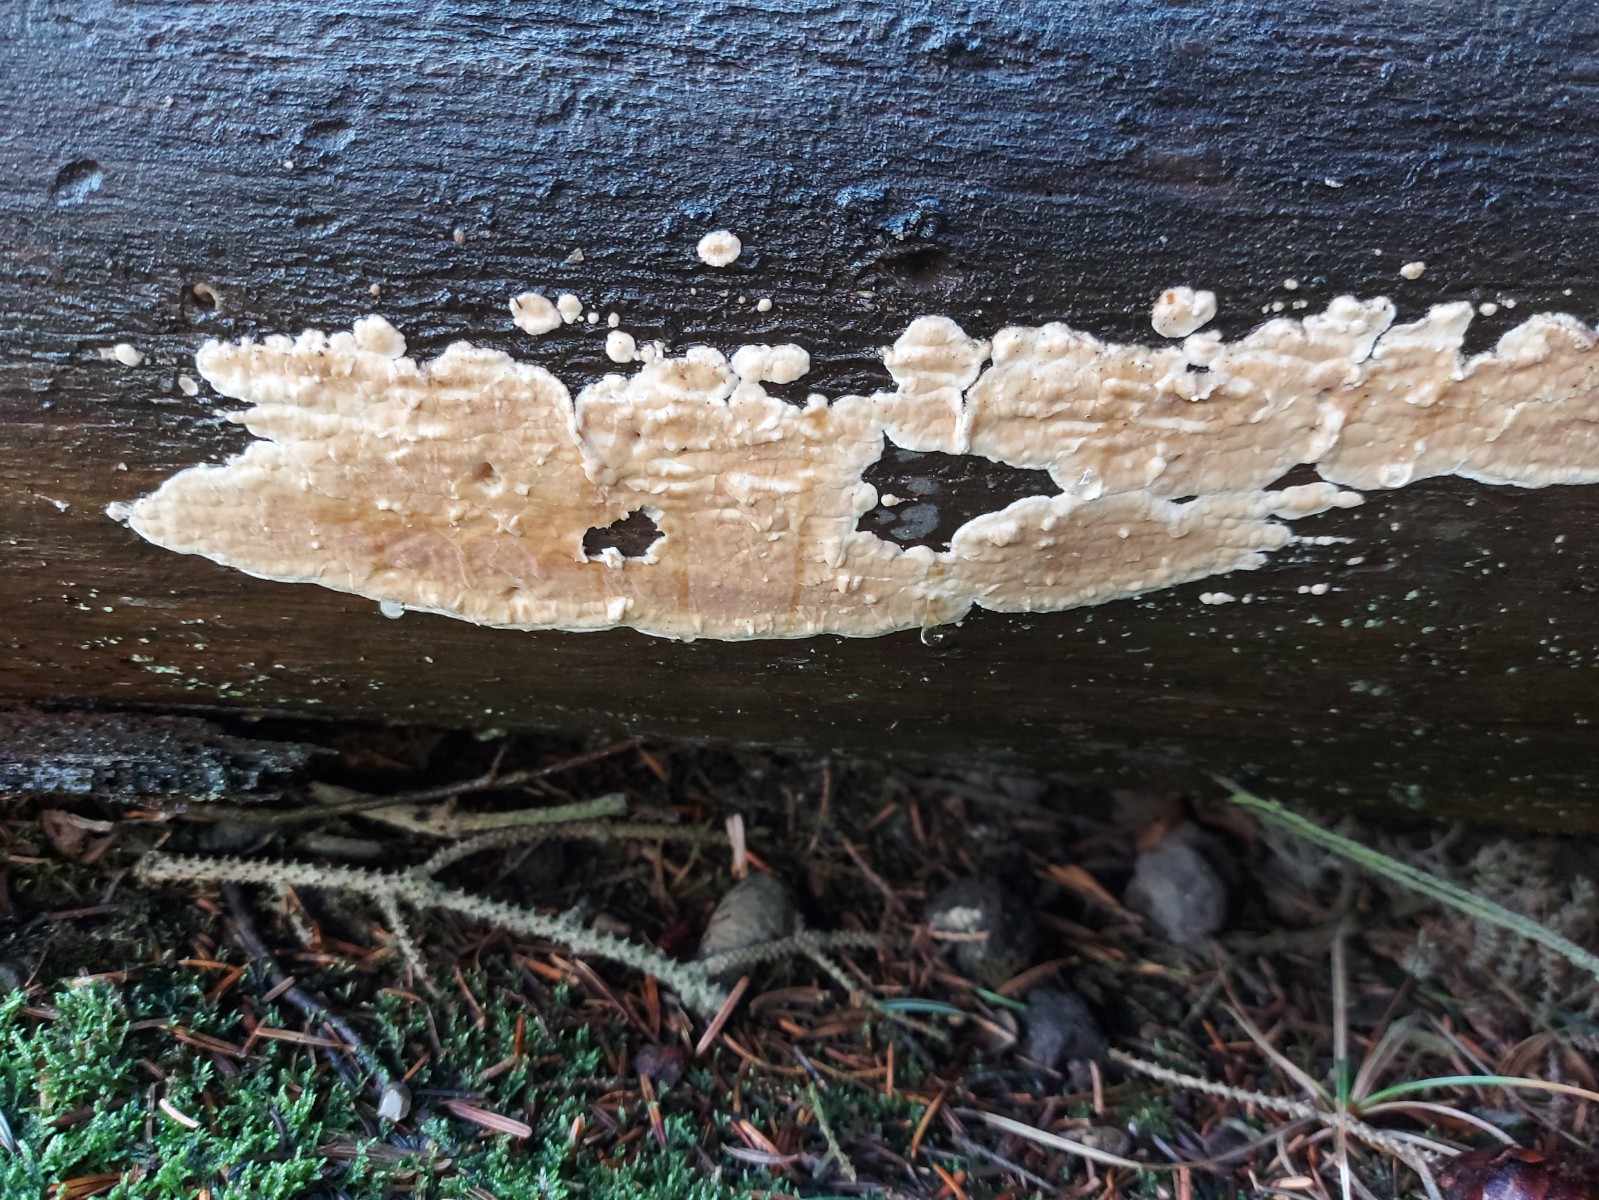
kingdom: Fungi
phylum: Basidiomycota
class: Agaricomycetes
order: Polyporales
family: Dacryobolaceae
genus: Dacryobolus
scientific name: Dacryobolus karstenii
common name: glat vulkanskorpe
